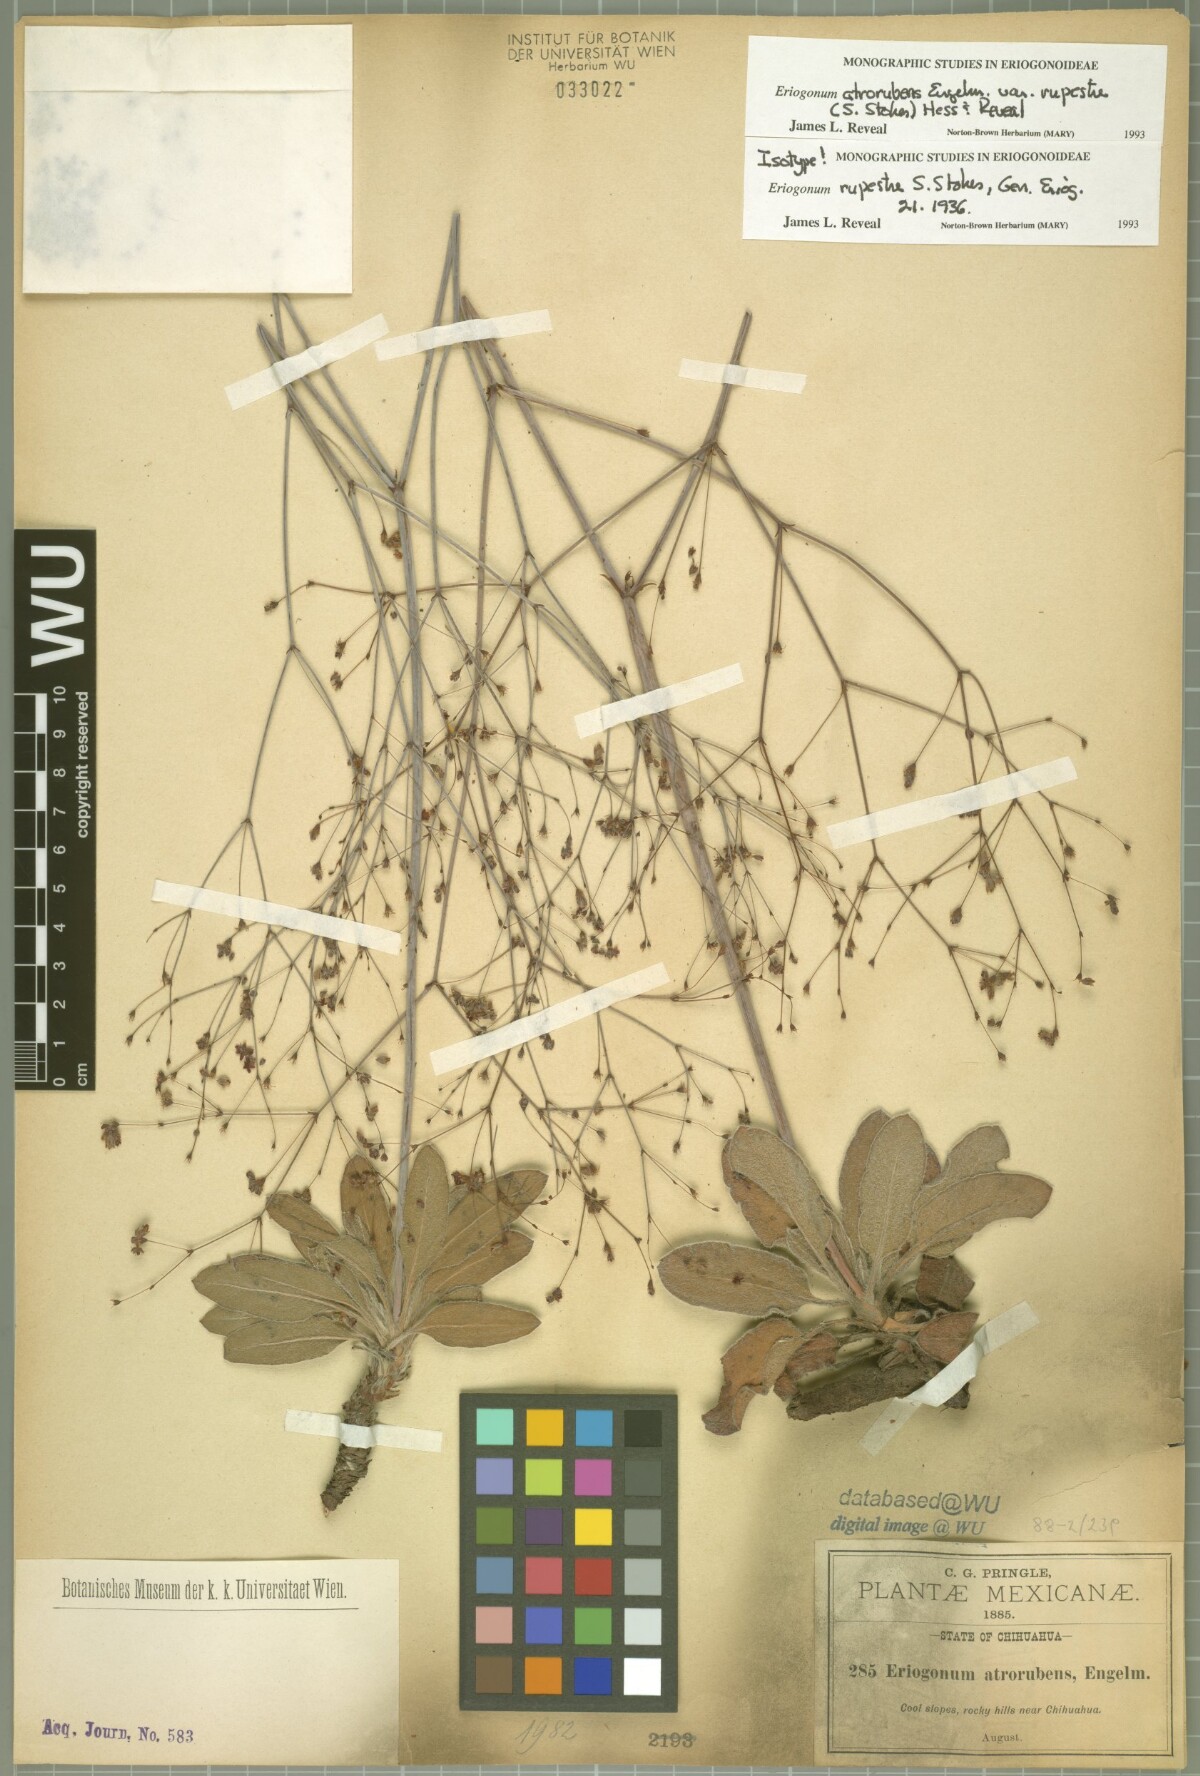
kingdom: Plantae
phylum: Tracheophyta
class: Magnoliopsida
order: Caryophyllales
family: Polygonaceae
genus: Eriogonum
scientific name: Eriogonum atrorubens
